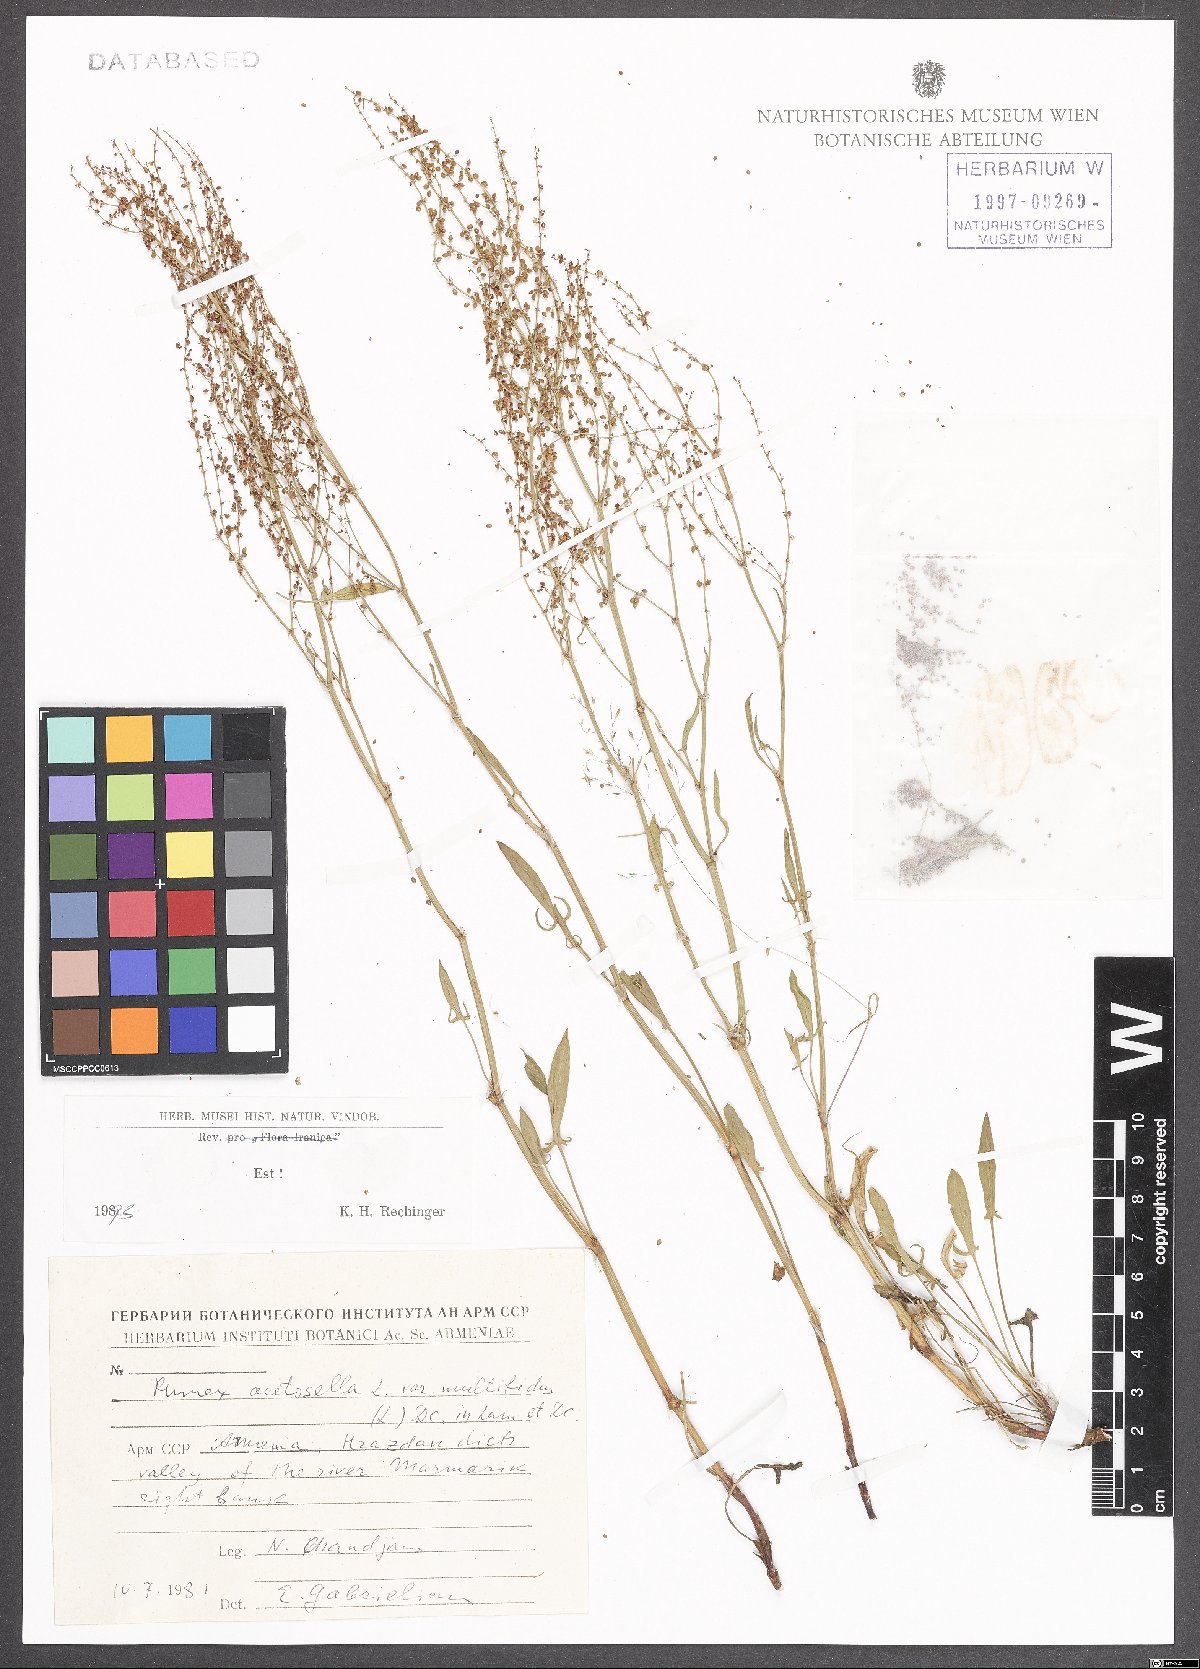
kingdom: Plantae
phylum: Tracheophyta
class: Magnoliopsida
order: Caryophyllales
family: Polygonaceae
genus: Rumex
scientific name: Rumex acetosella
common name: Common sheep sorrel
